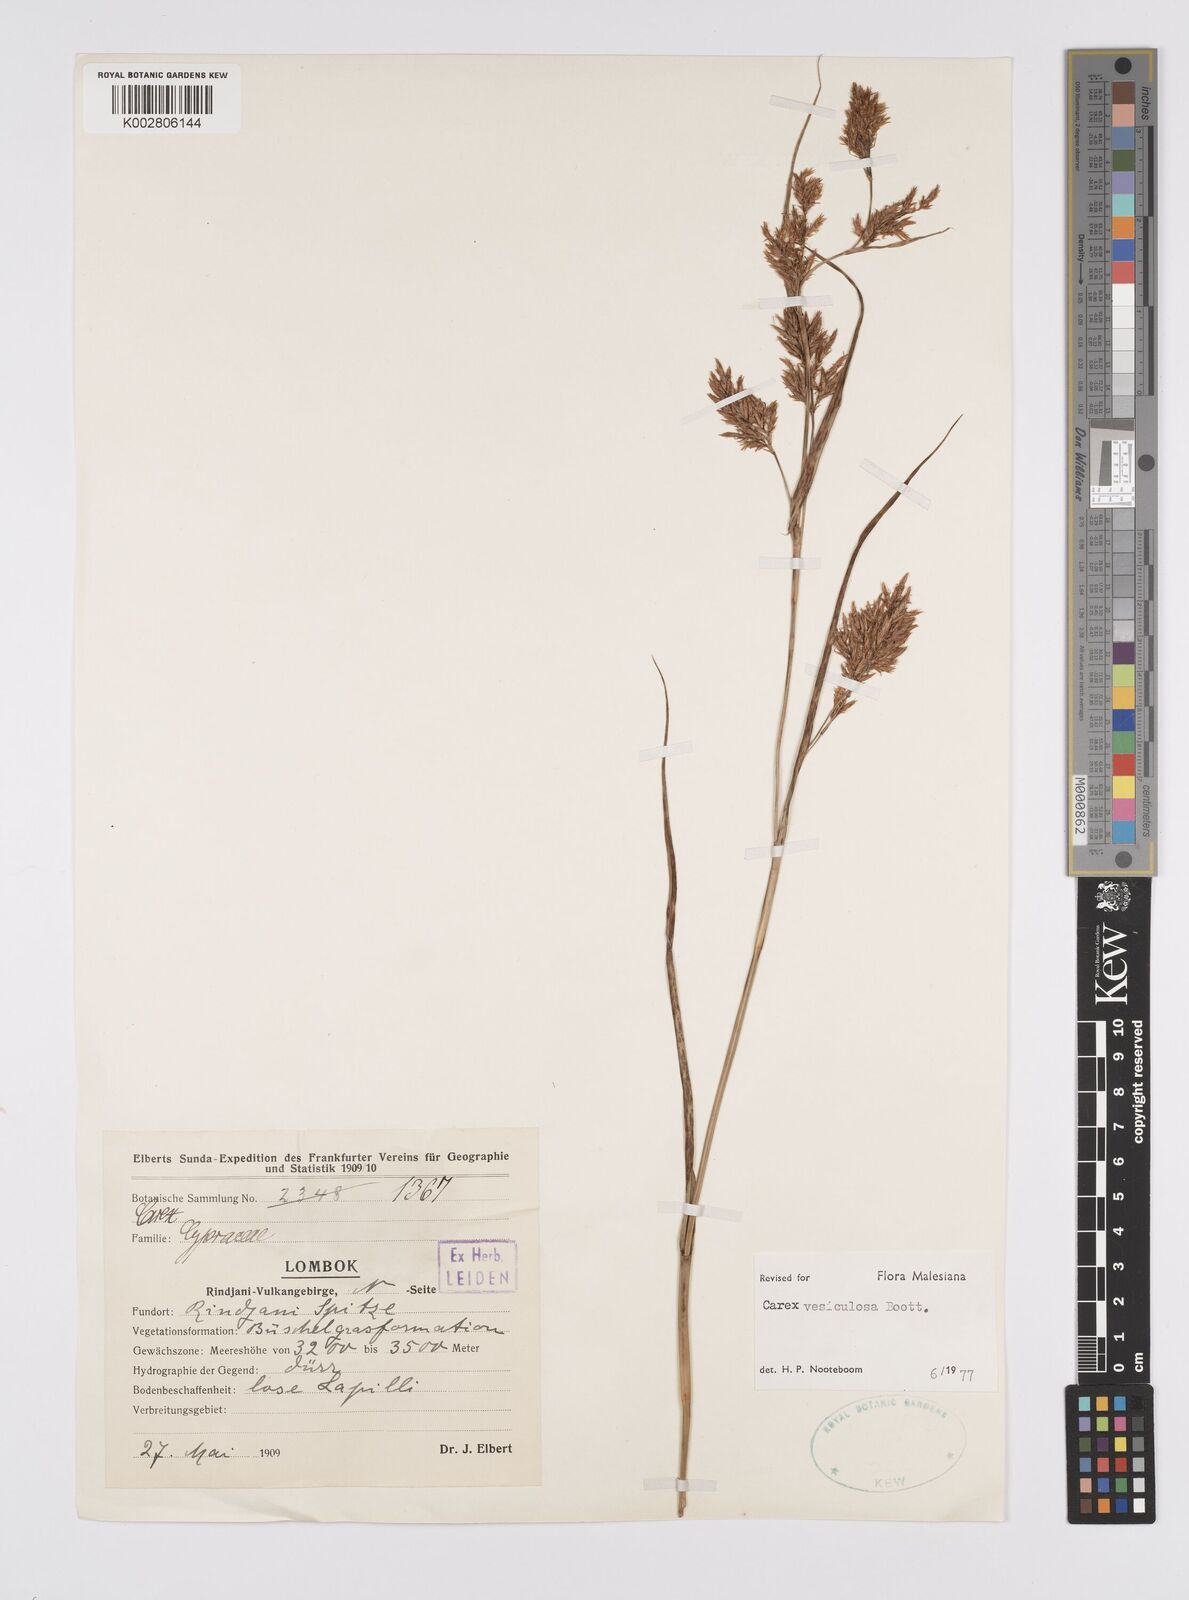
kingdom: Plantae
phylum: Tracheophyta
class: Liliopsida
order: Poales
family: Cyperaceae
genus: Carex
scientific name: Carex vesiculosa
